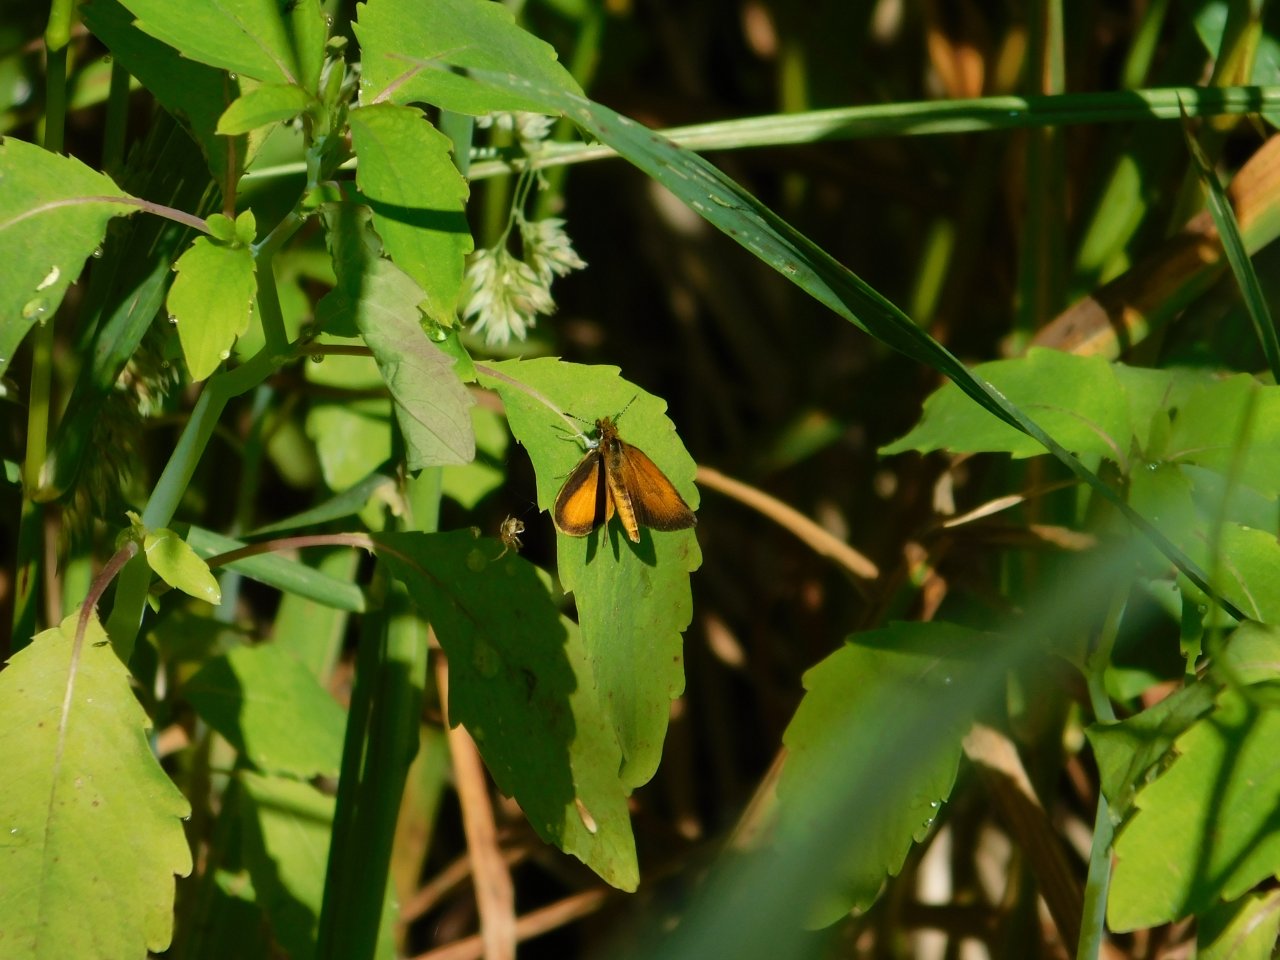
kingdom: Animalia
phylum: Arthropoda
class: Insecta
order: Lepidoptera
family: Hesperiidae
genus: Ancyloxypha
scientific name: Ancyloxypha numitor
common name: Least Skipper
